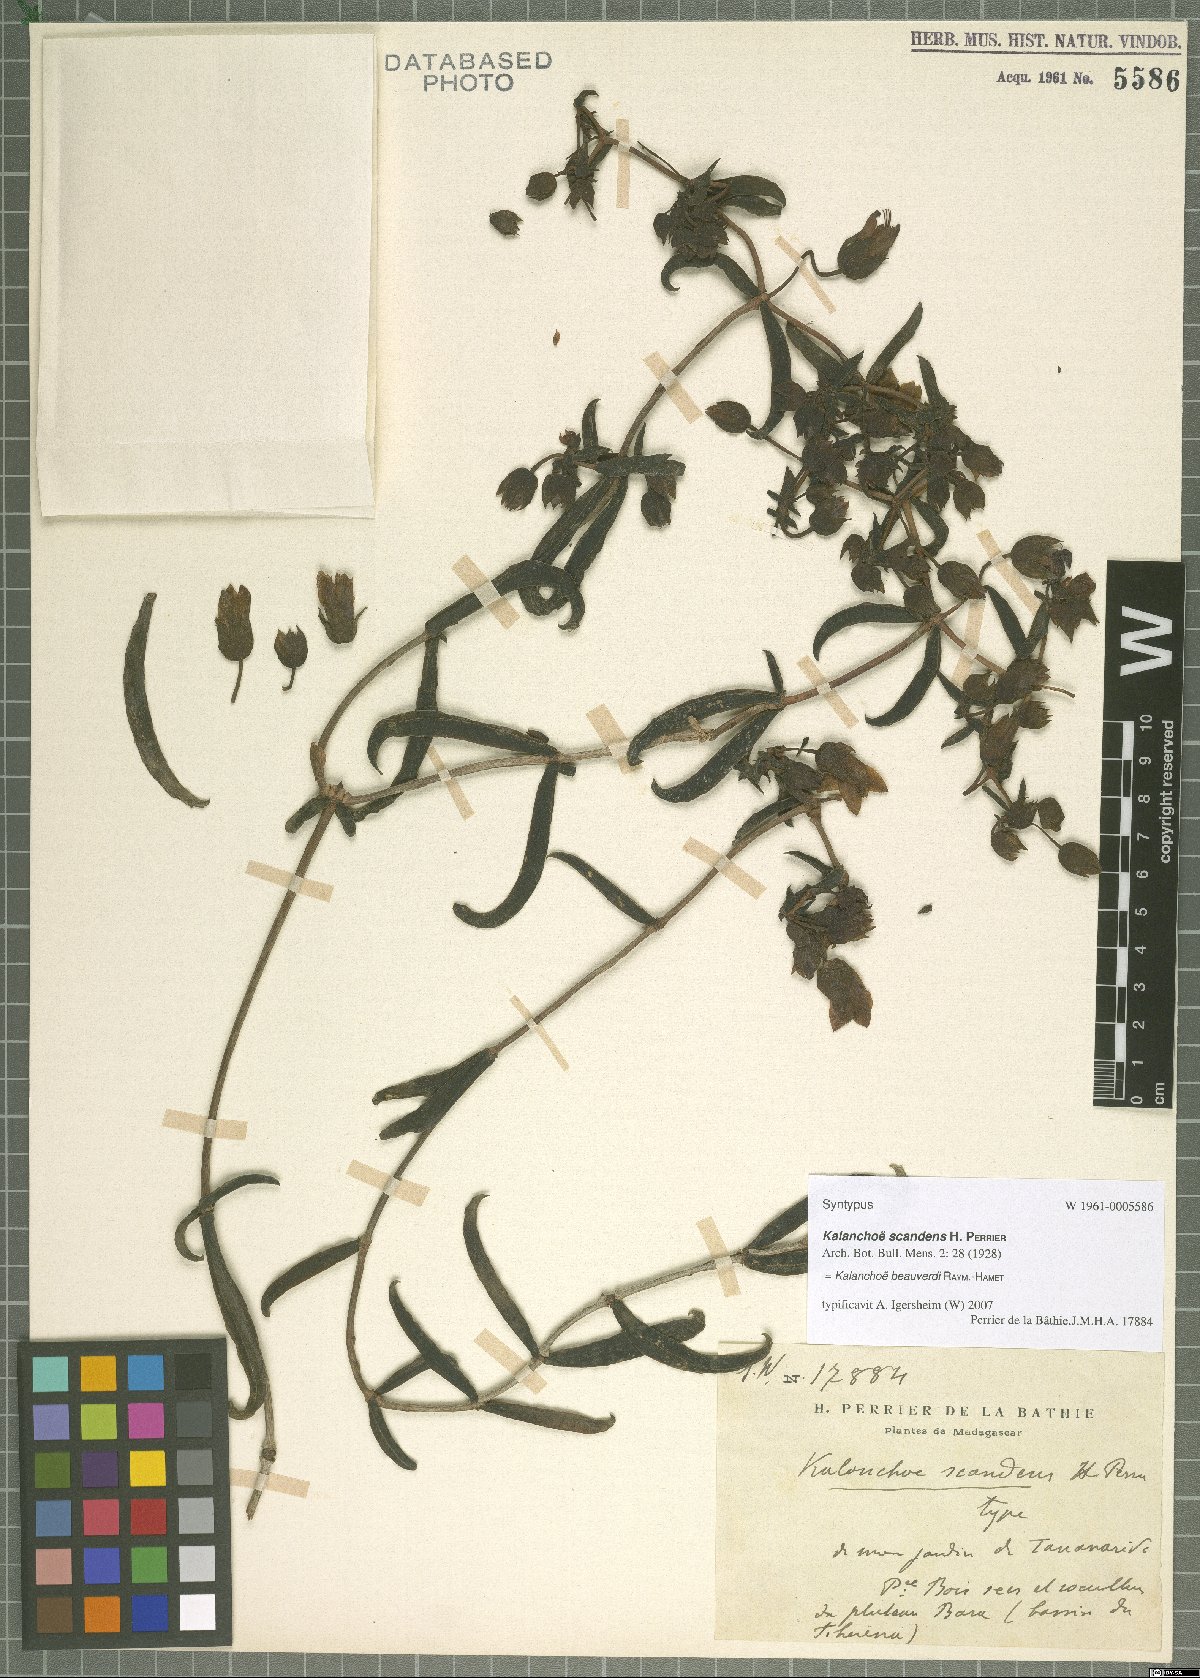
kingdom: Plantae
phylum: Tracheophyta
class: Magnoliopsida
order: Saxifragales
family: Crassulaceae
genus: Kalanchoe
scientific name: Kalanchoe beauverdii
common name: Beauverd's widow's-thrill
